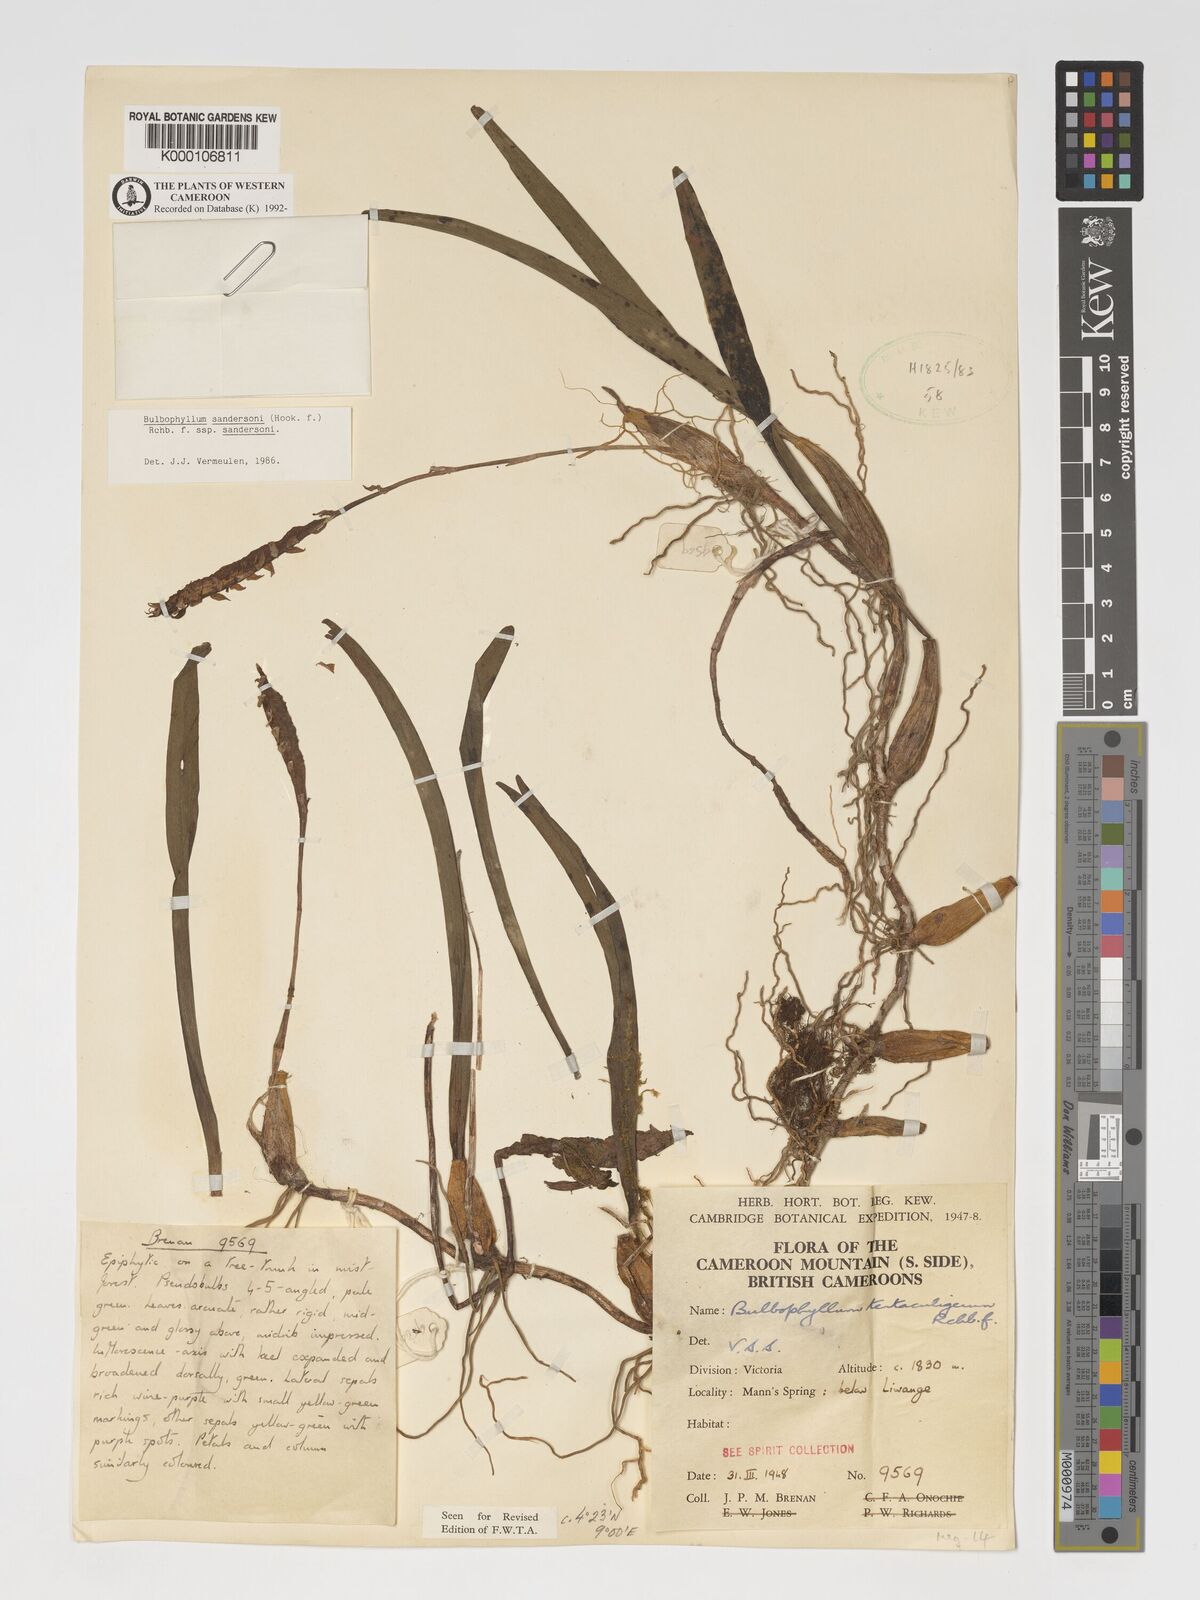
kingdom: Plantae
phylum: Tracheophyta
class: Liliopsida
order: Asparagales
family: Orchidaceae
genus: Bulbophyllum
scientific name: Bulbophyllum sandersonii
